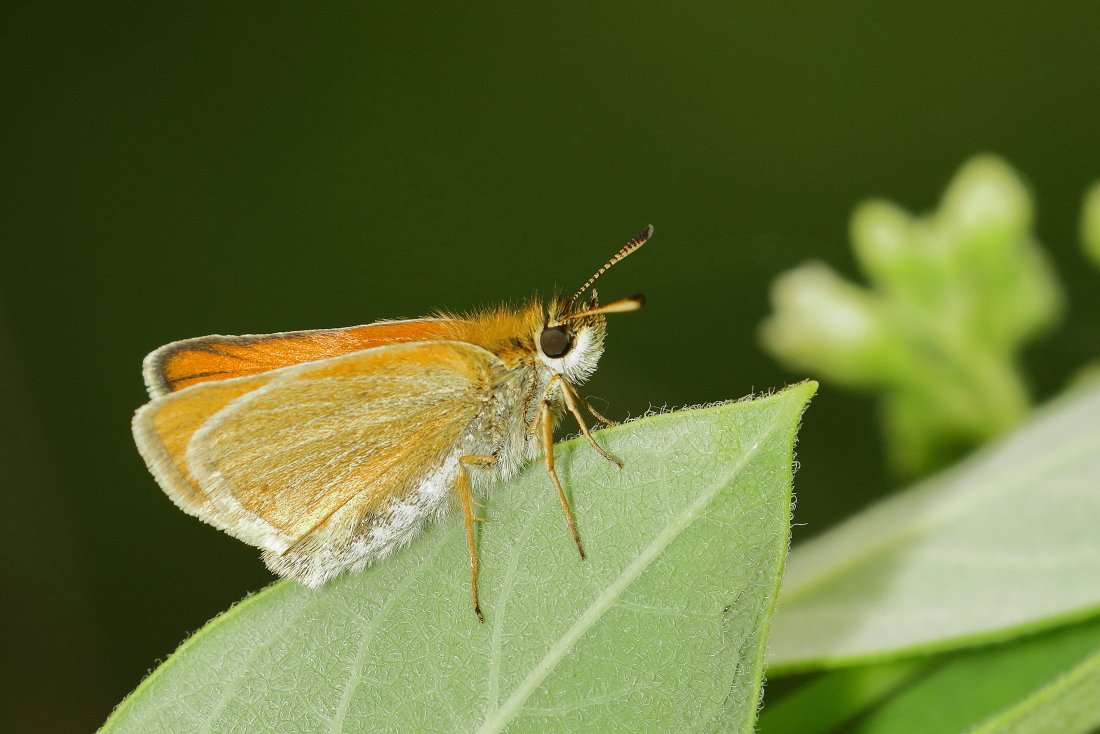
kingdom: Animalia
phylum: Arthropoda
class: Insecta
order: Lepidoptera
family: Hesperiidae
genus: Thymelicus
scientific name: Thymelicus lineola
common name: European Skipper
